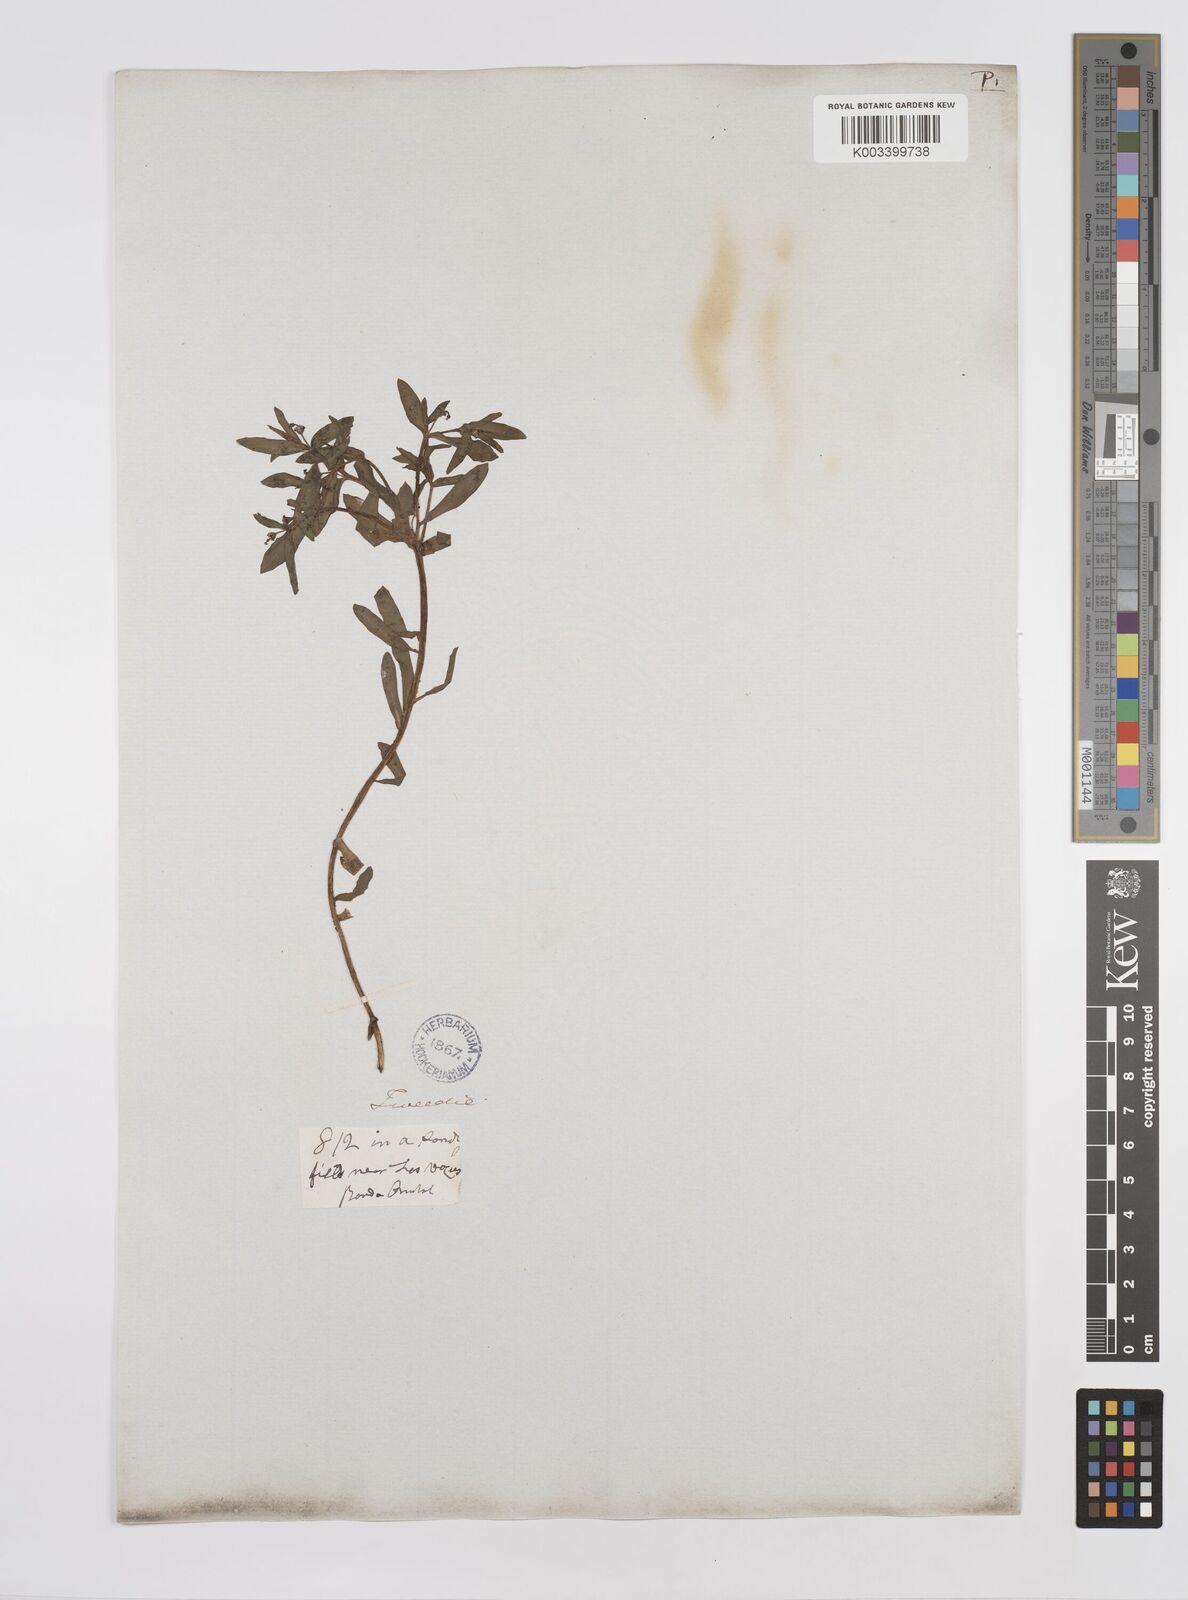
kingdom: Plantae
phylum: Tracheophyta
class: Magnoliopsida
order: Malpighiales
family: Euphorbiaceae
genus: Euphorbia
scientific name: Euphorbia
